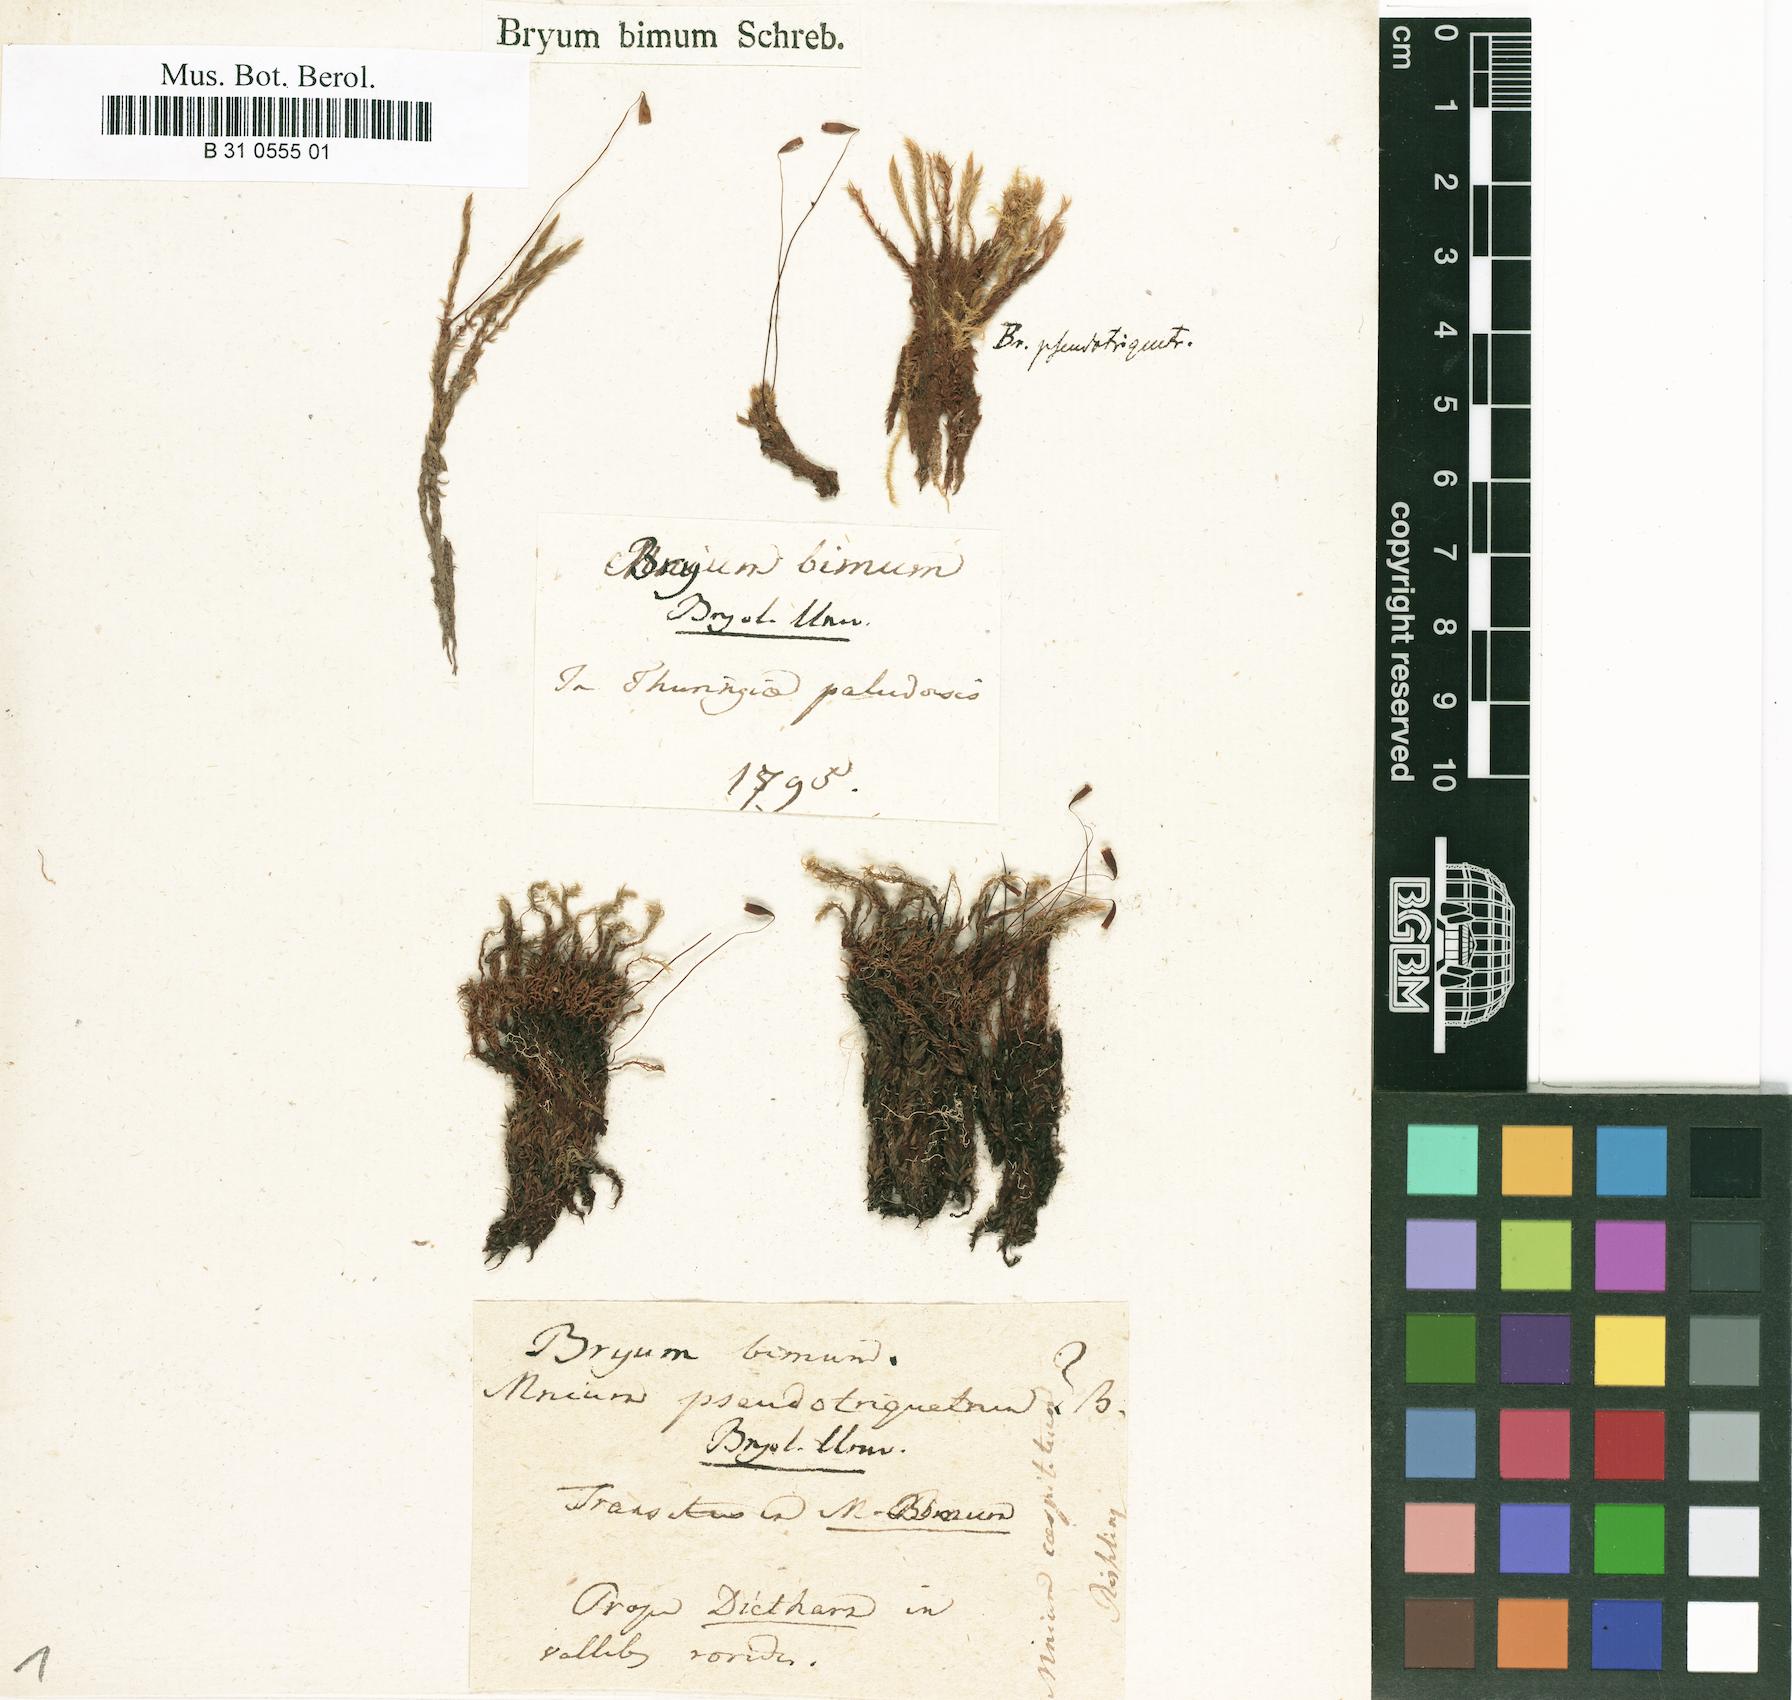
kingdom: Plantae
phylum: Bryophyta
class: Bryopsida
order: Bryales
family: Bryaceae
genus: Ptychostomum
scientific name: Ptychostomum bimum
